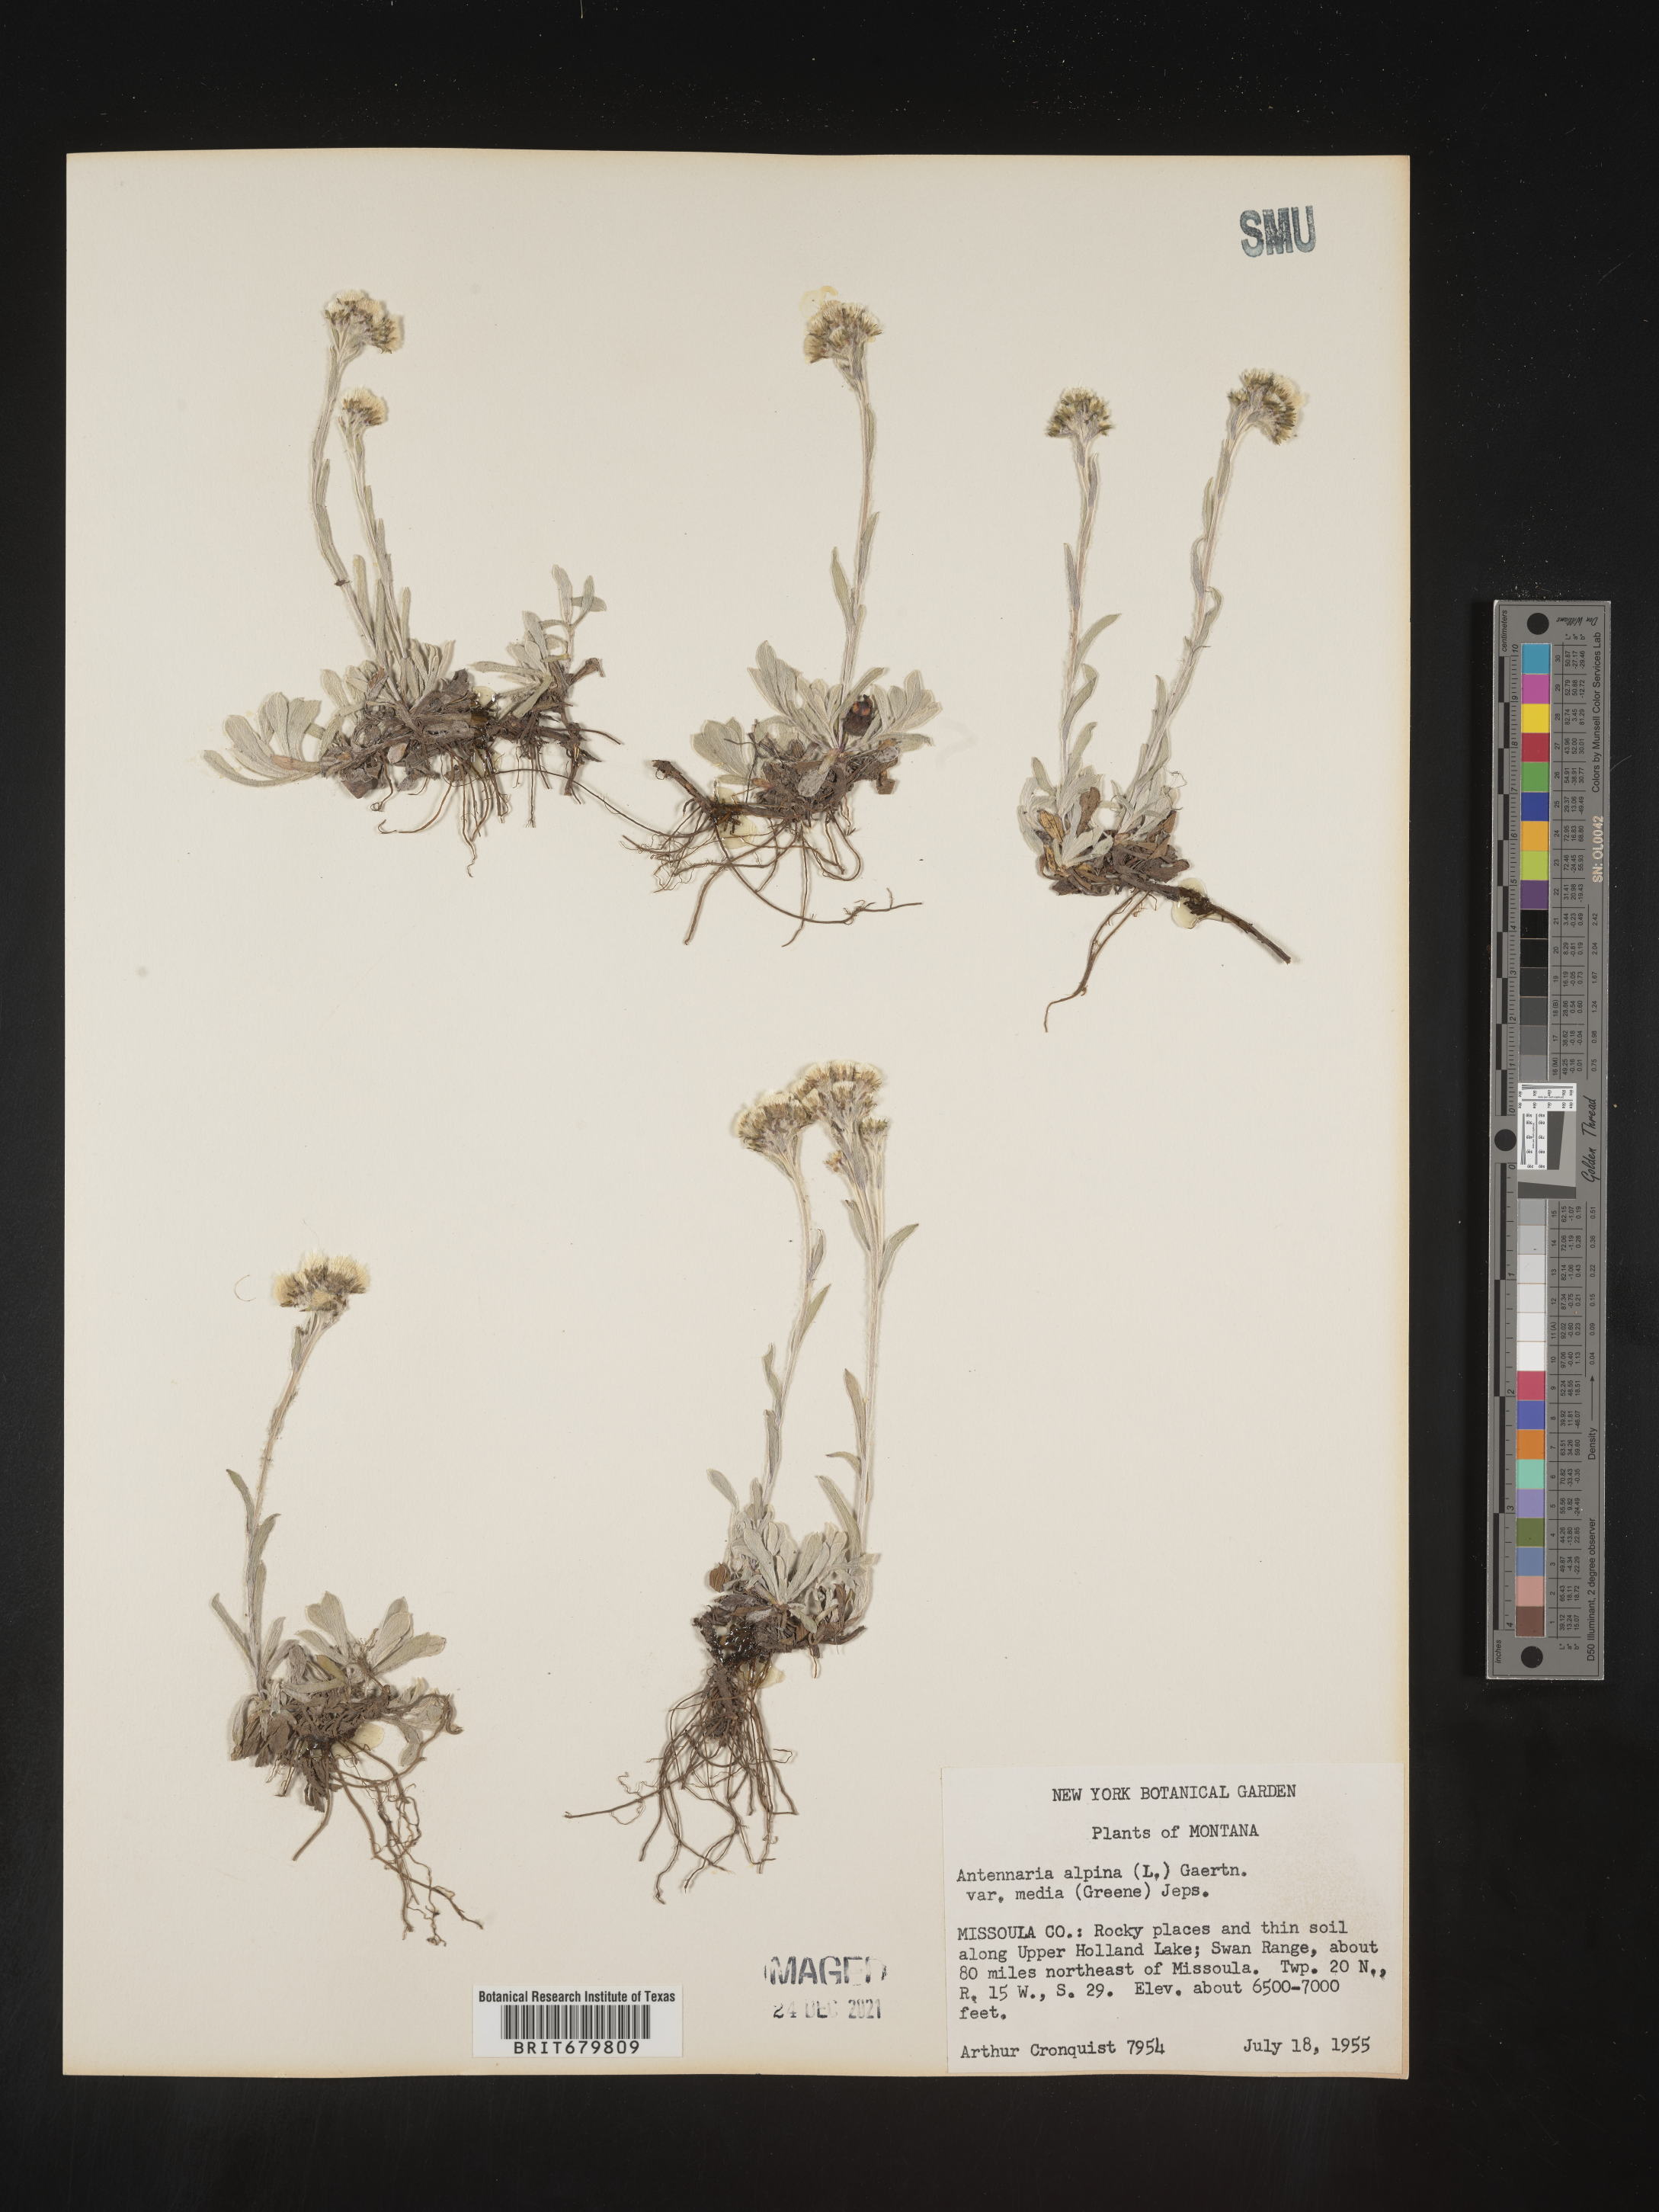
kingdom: Plantae
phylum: Tracheophyta
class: Magnoliopsida
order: Asterales
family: Asteraceae
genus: Antennaria
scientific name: Antennaria media
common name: Rocky mountain pussytoes
